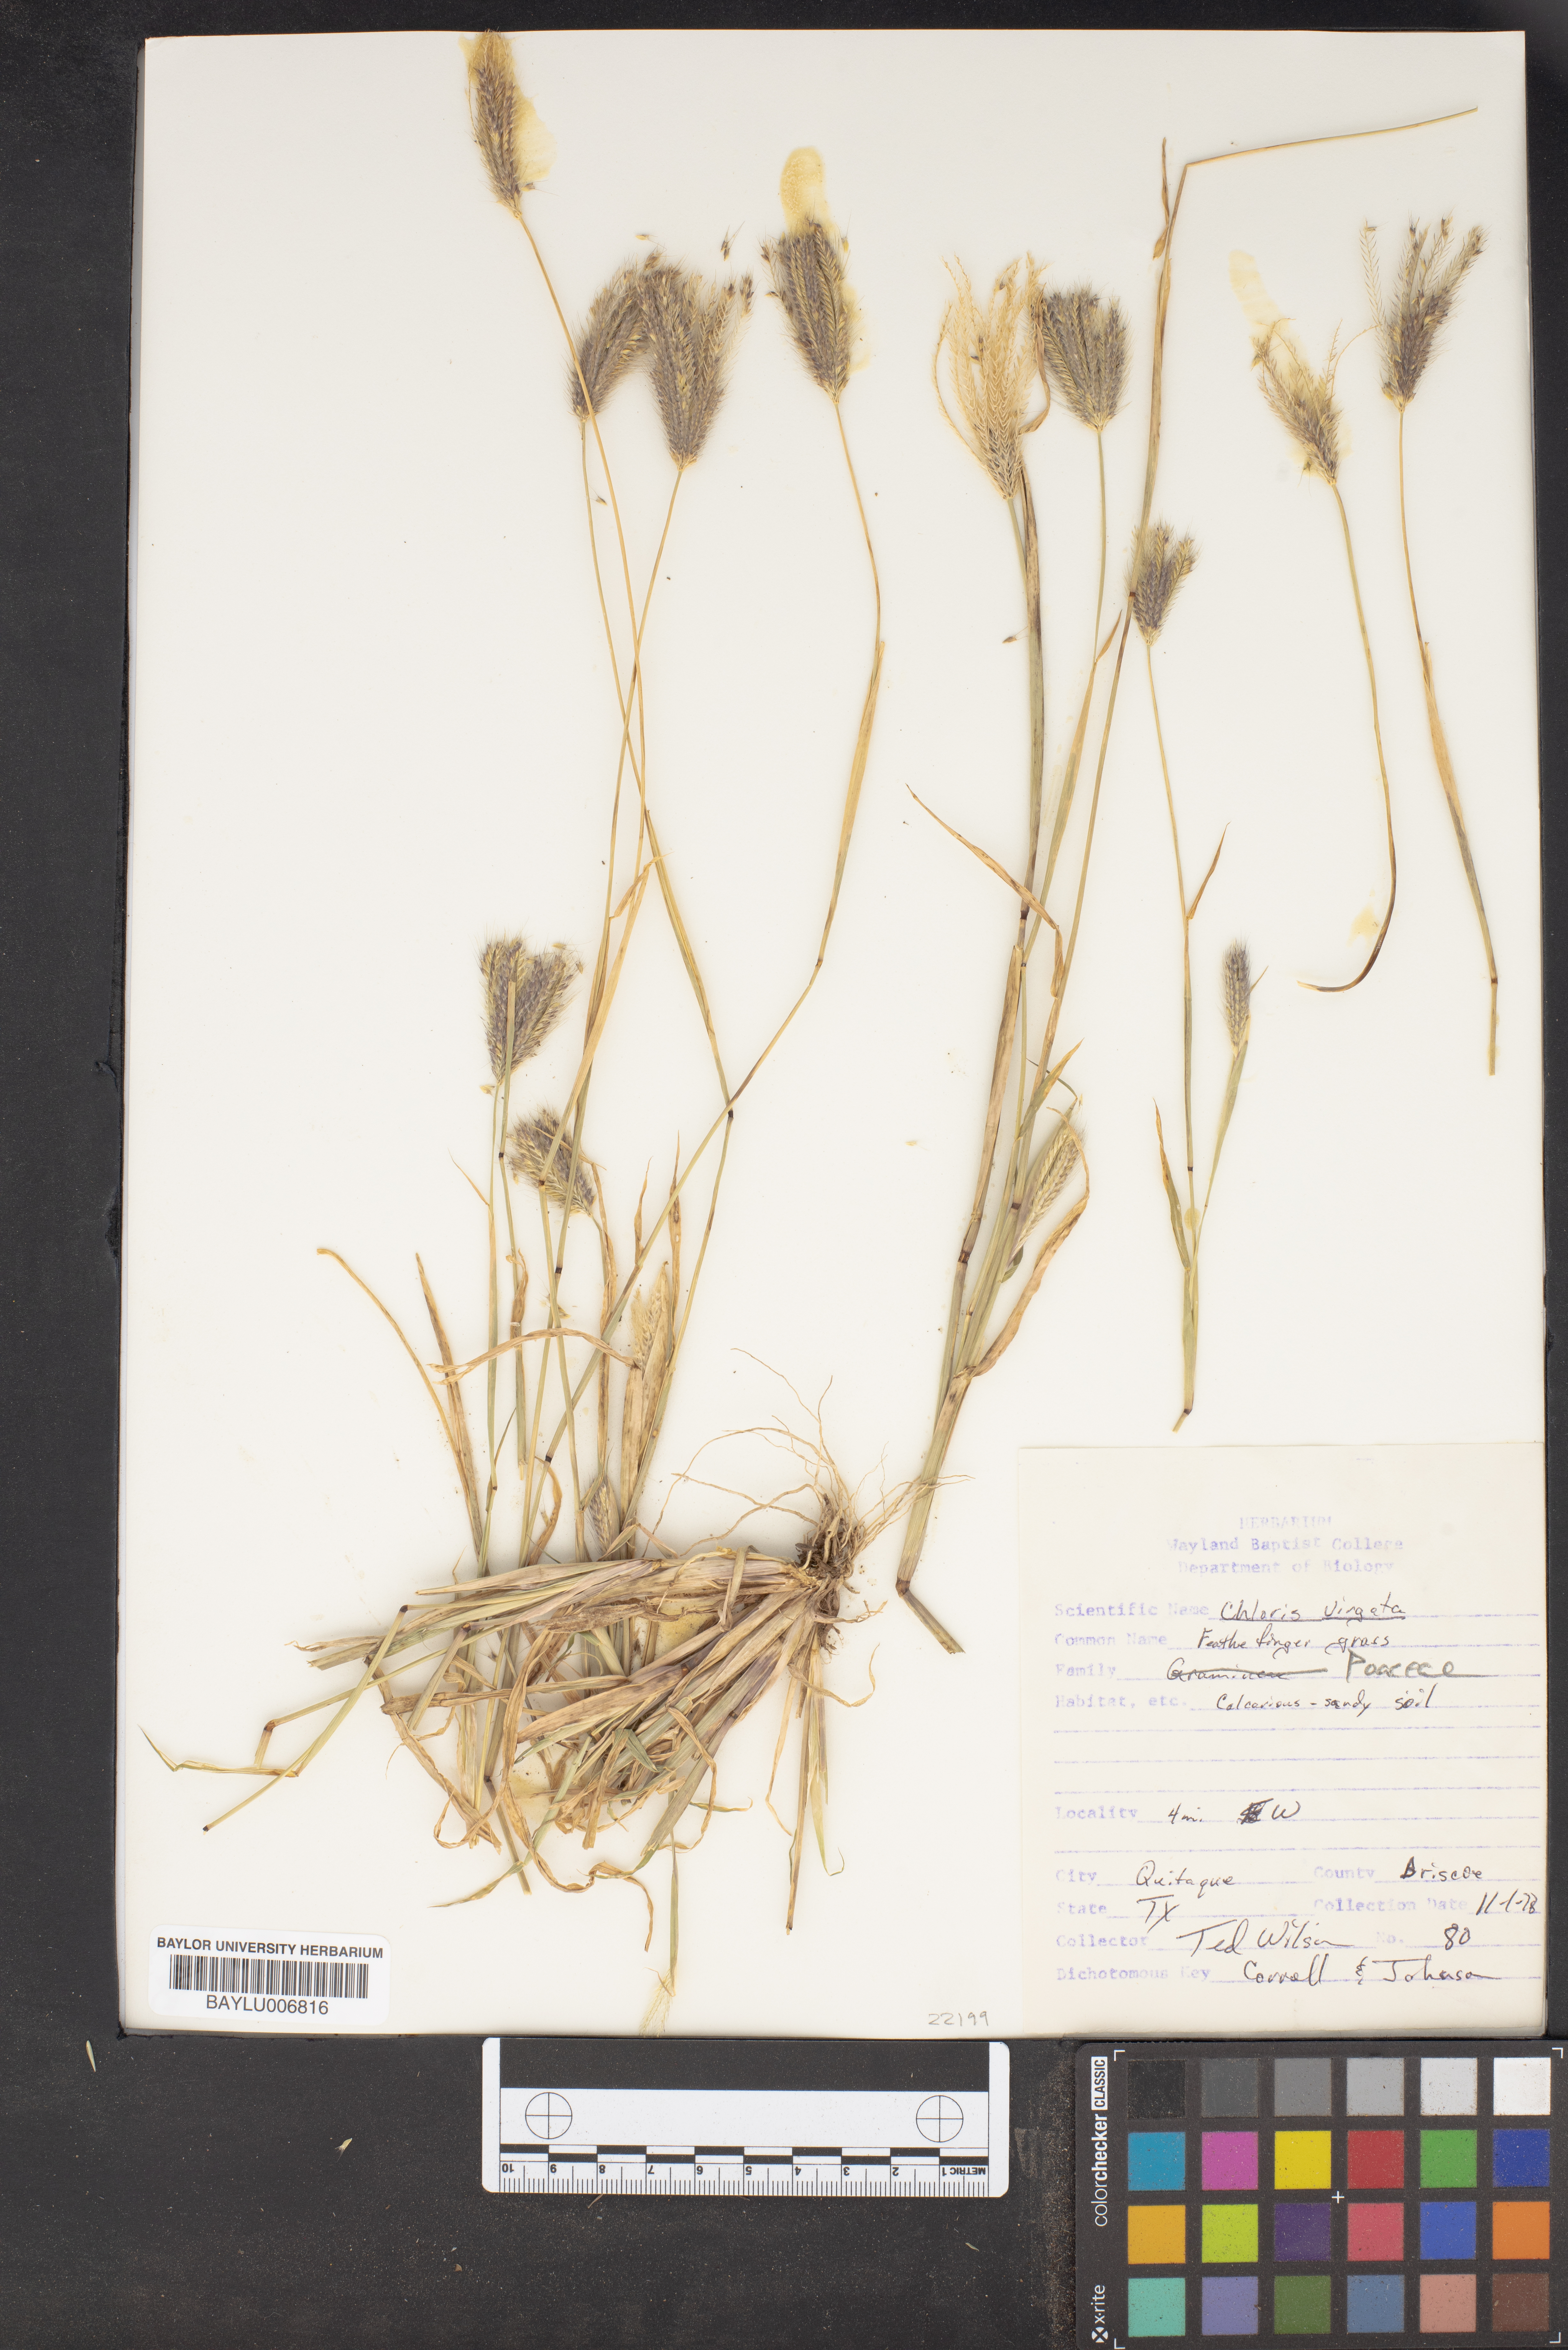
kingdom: Plantae
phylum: Tracheophyta
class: Liliopsida
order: Poales
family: Poaceae
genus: Chloris
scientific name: Chloris virgata
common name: Feathery rhodes-grass
